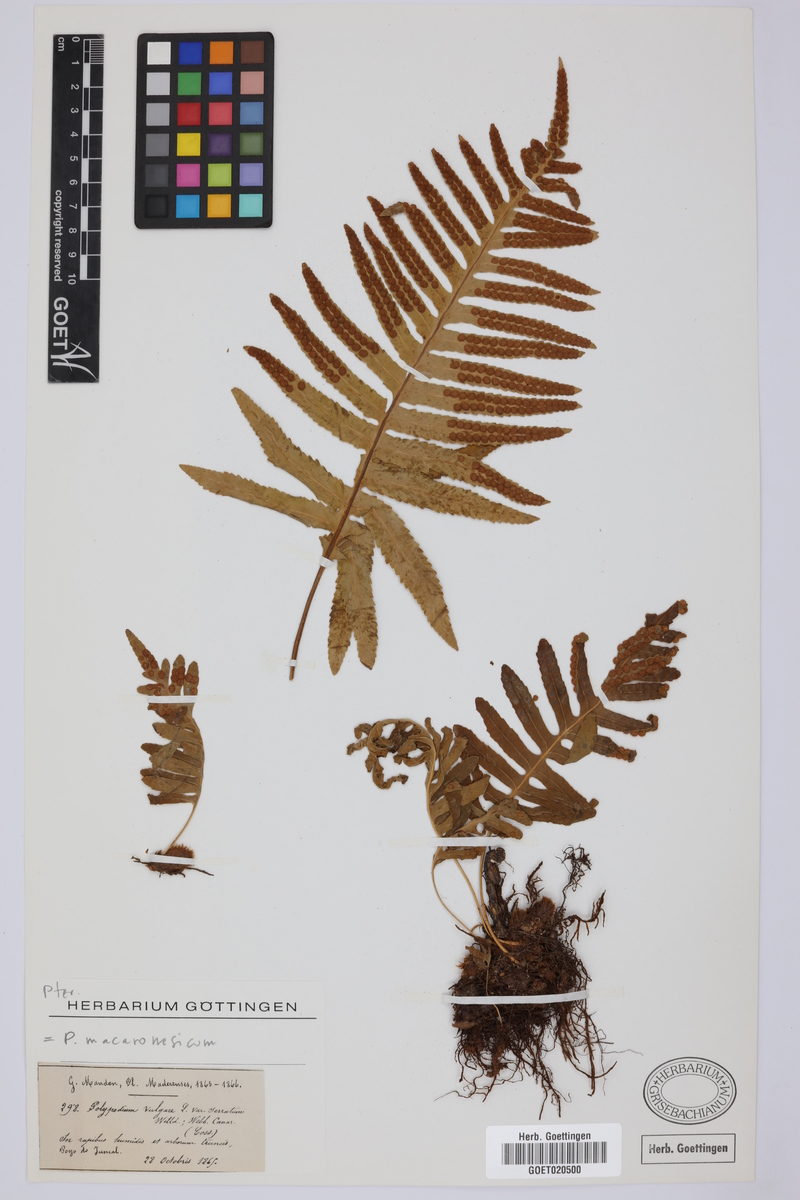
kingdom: Plantae
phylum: Tracheophyta
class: Polypodiopsida
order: Polypodiales
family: Polypodiaceae
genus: Polypodium
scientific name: Polypodium macaronesicum
